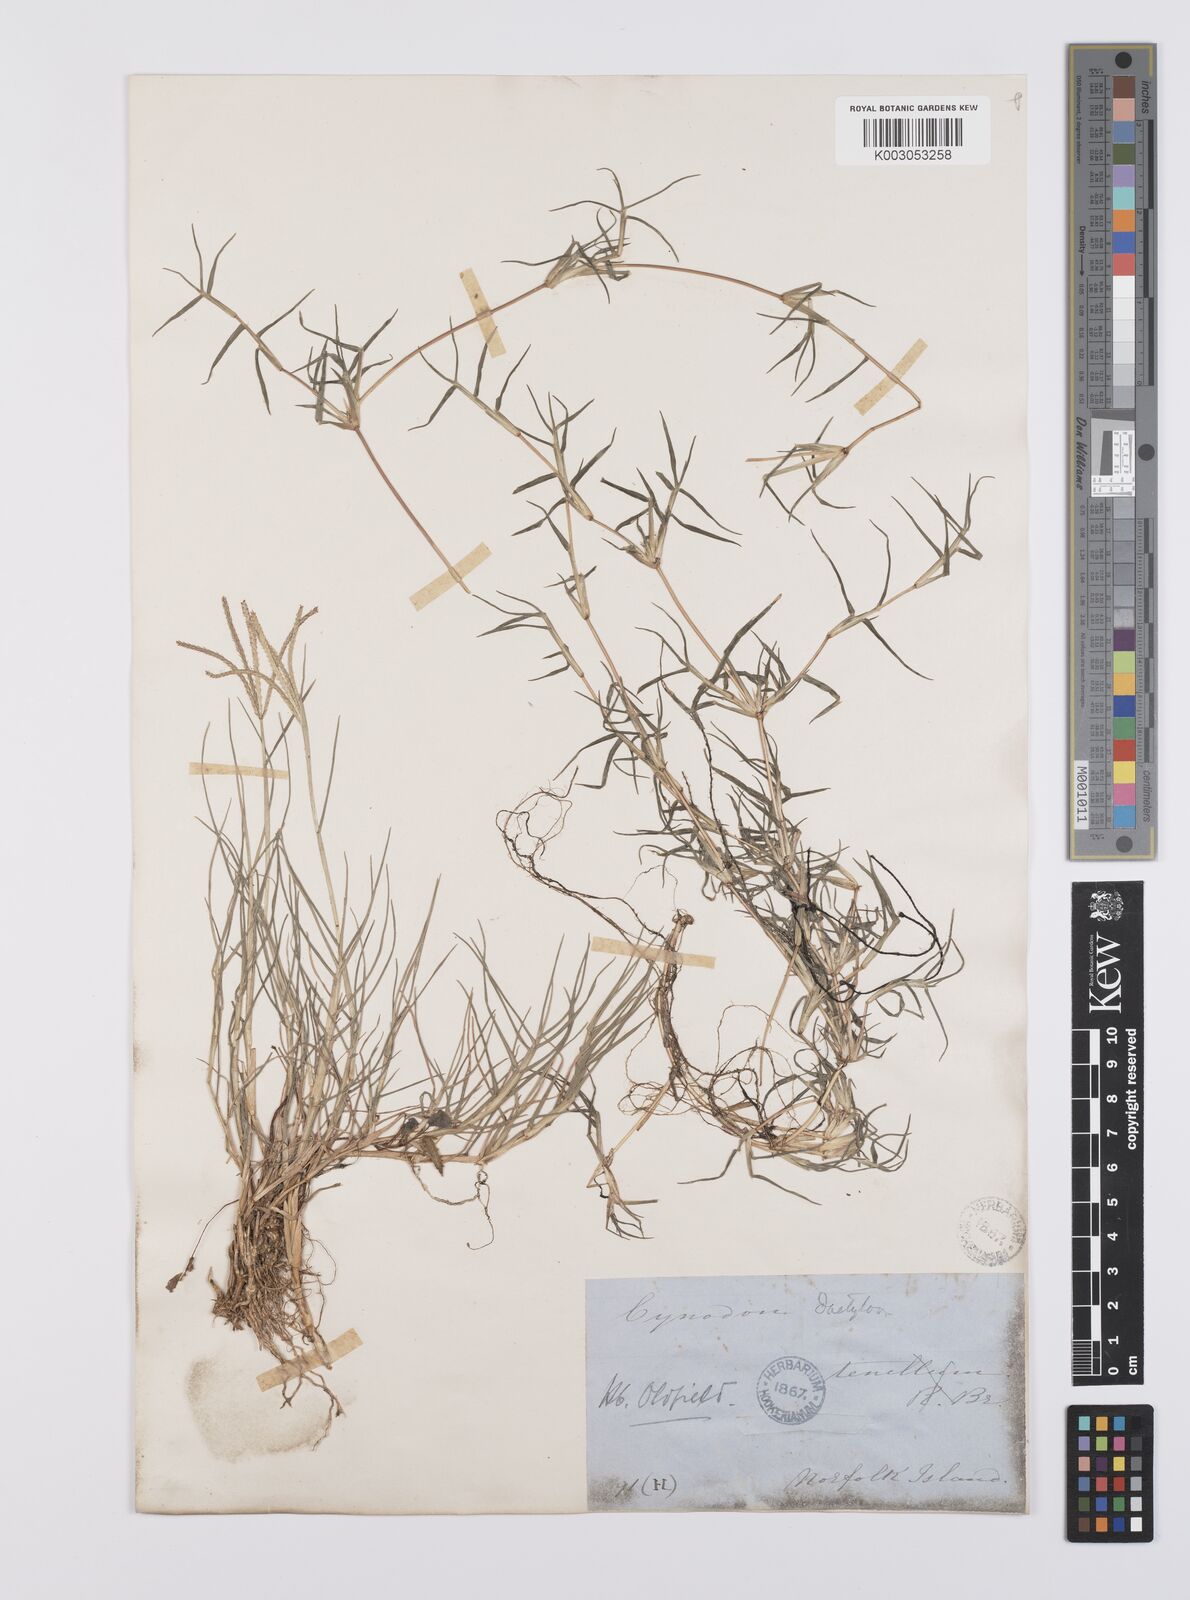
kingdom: Plantae
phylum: Tracheophyta
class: Liliopsida
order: Poales
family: Poaceae
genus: Cynodon
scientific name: Cynodon dactylon
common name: Bermuda grass
